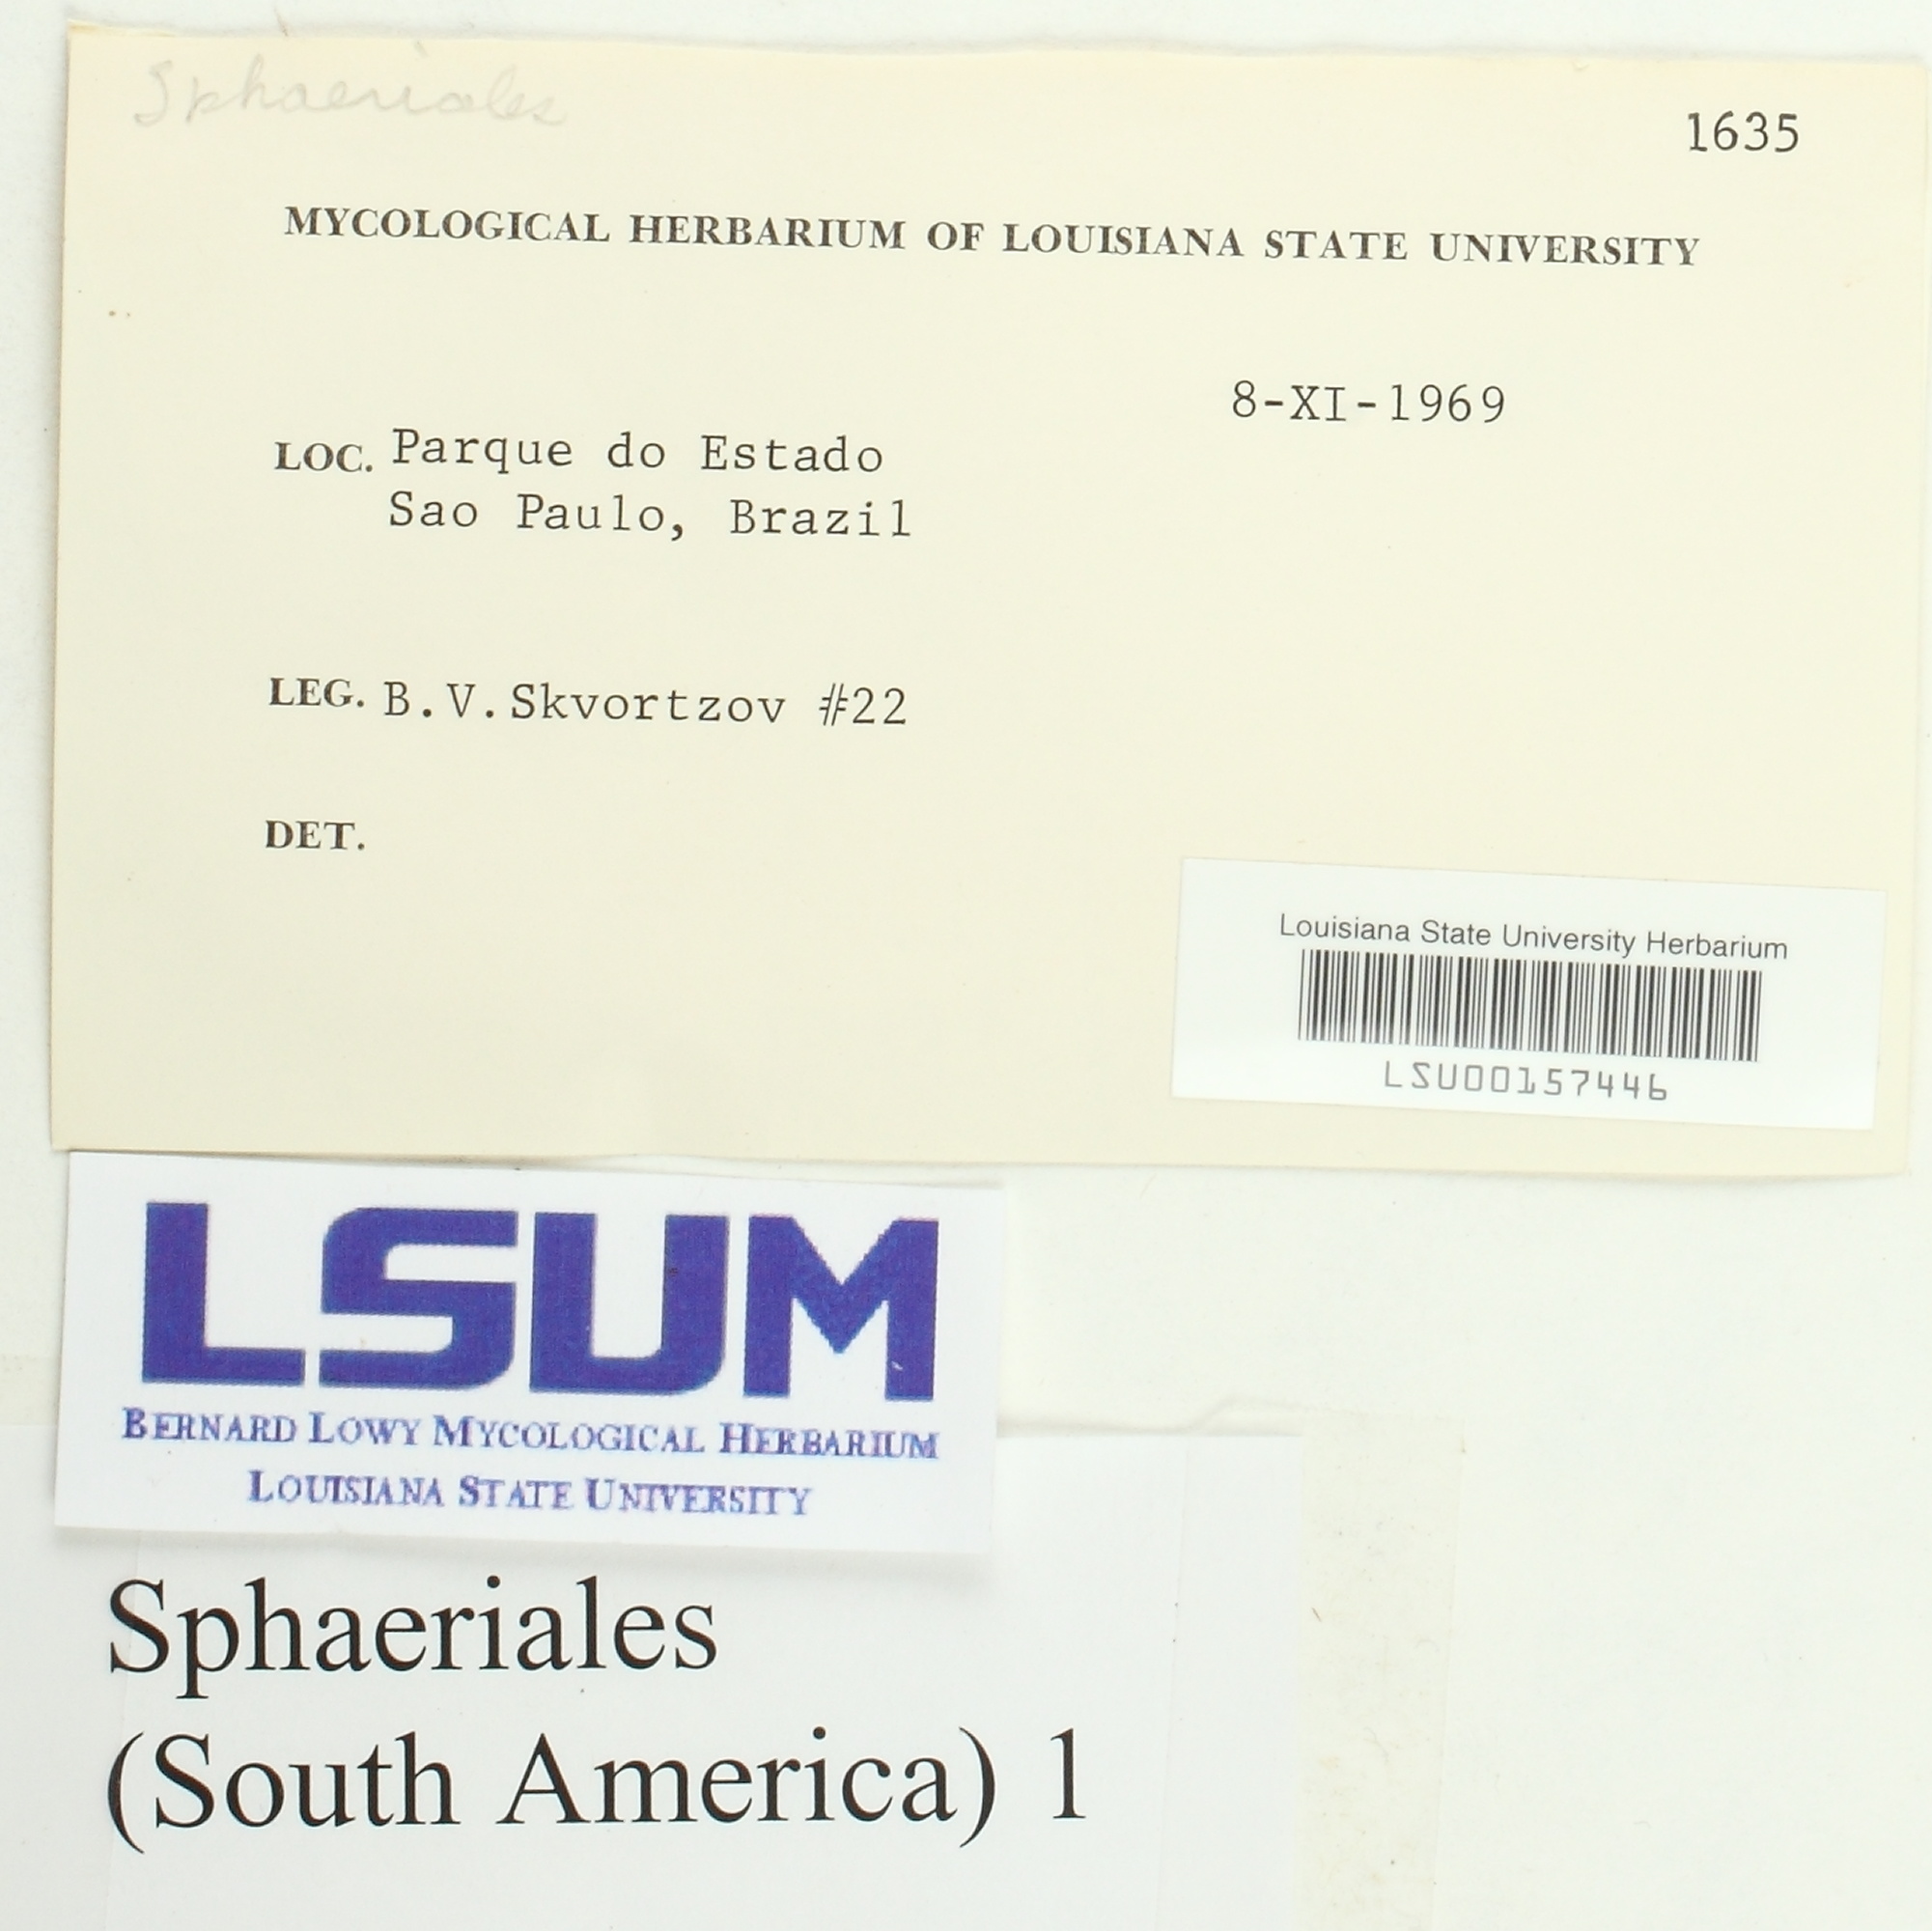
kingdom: Fungi
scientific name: Fungi
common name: Fungi
